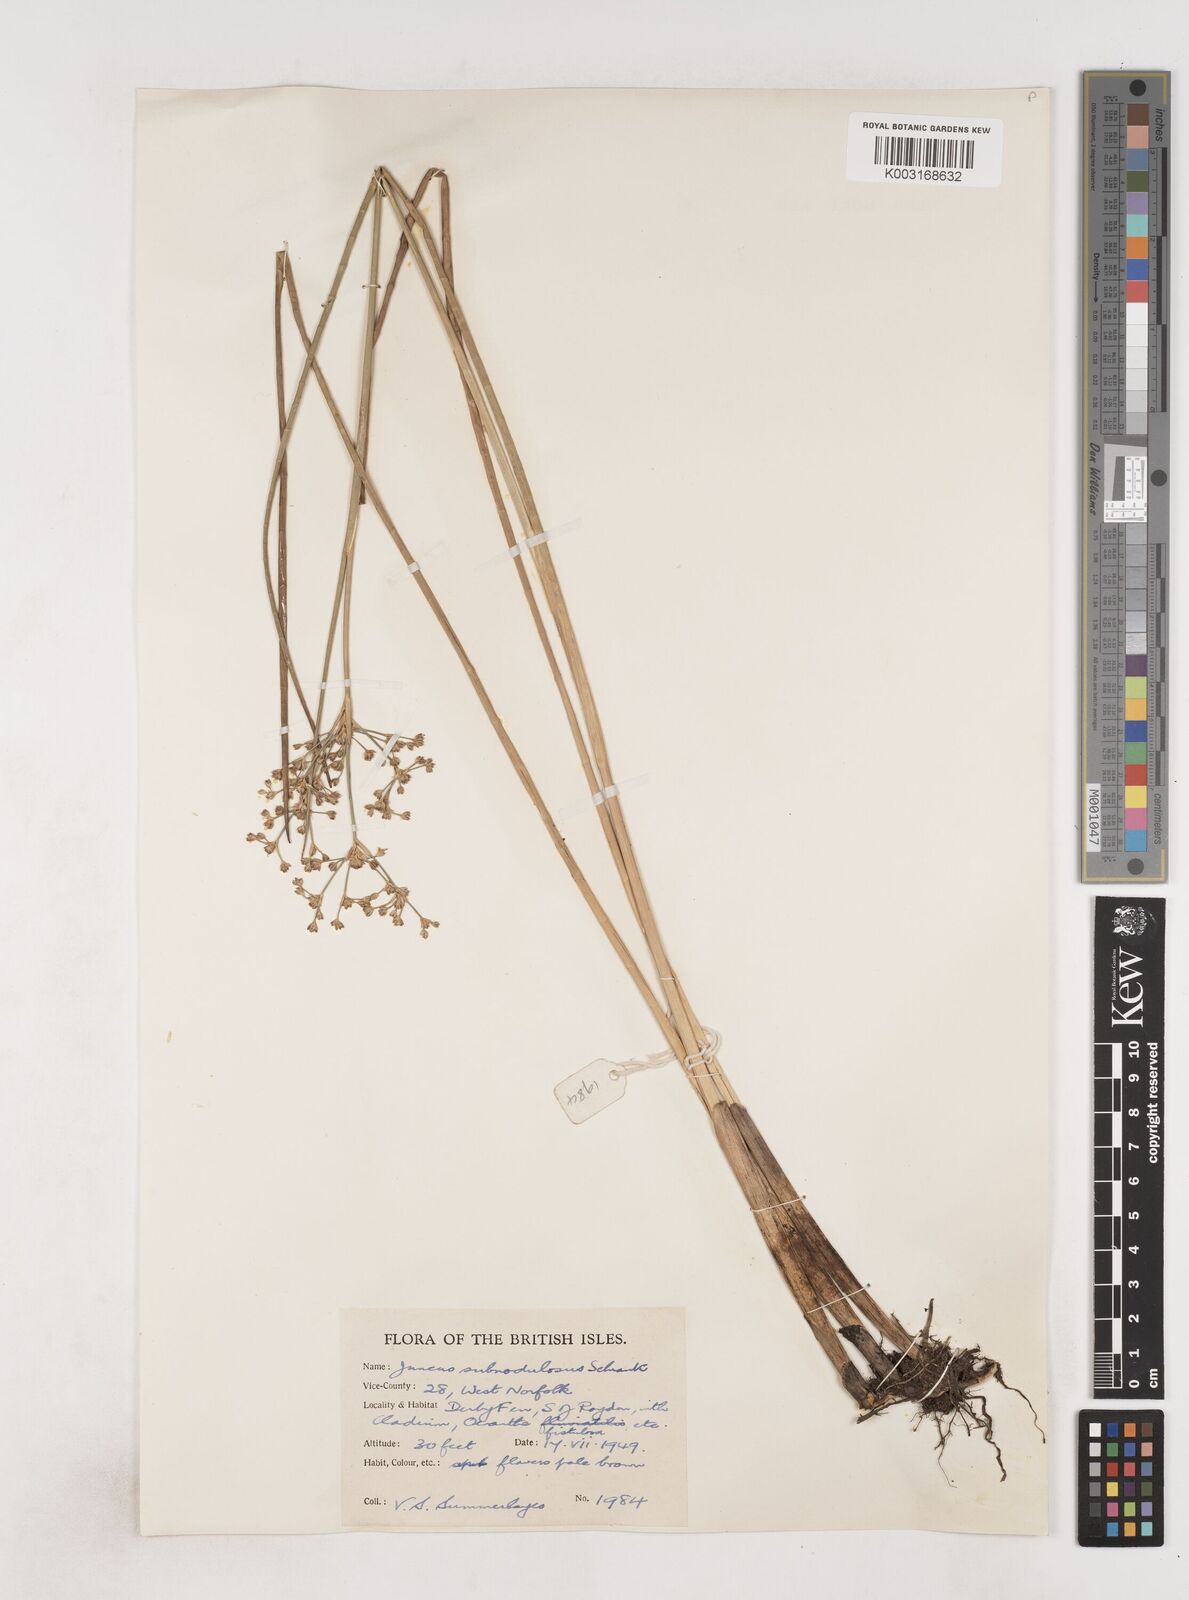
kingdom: Plantae
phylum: Tracheophyta
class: Liliopsida
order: Poales
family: Juncaceae
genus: Juncus
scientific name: Juncus subnodulosus
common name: Blunt-flowered rush
